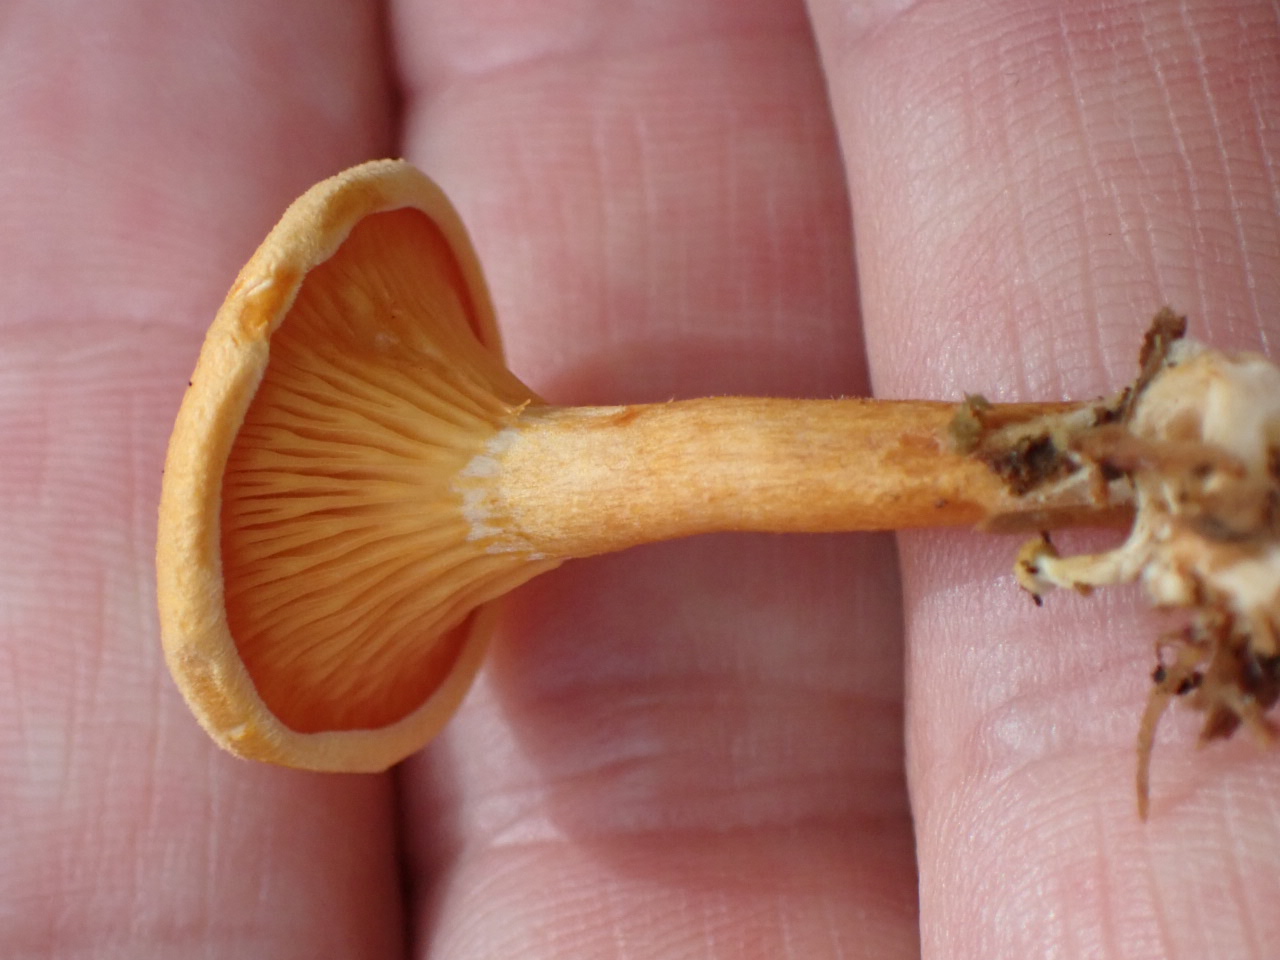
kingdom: Fungi
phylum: Basidiomycota
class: Agaricomycetes
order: Boletales
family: Hygrophoropsidaceae
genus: Hygrophoropsis
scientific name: Hygrophoropsis aurantiaca
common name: almindelig orangekantarel
